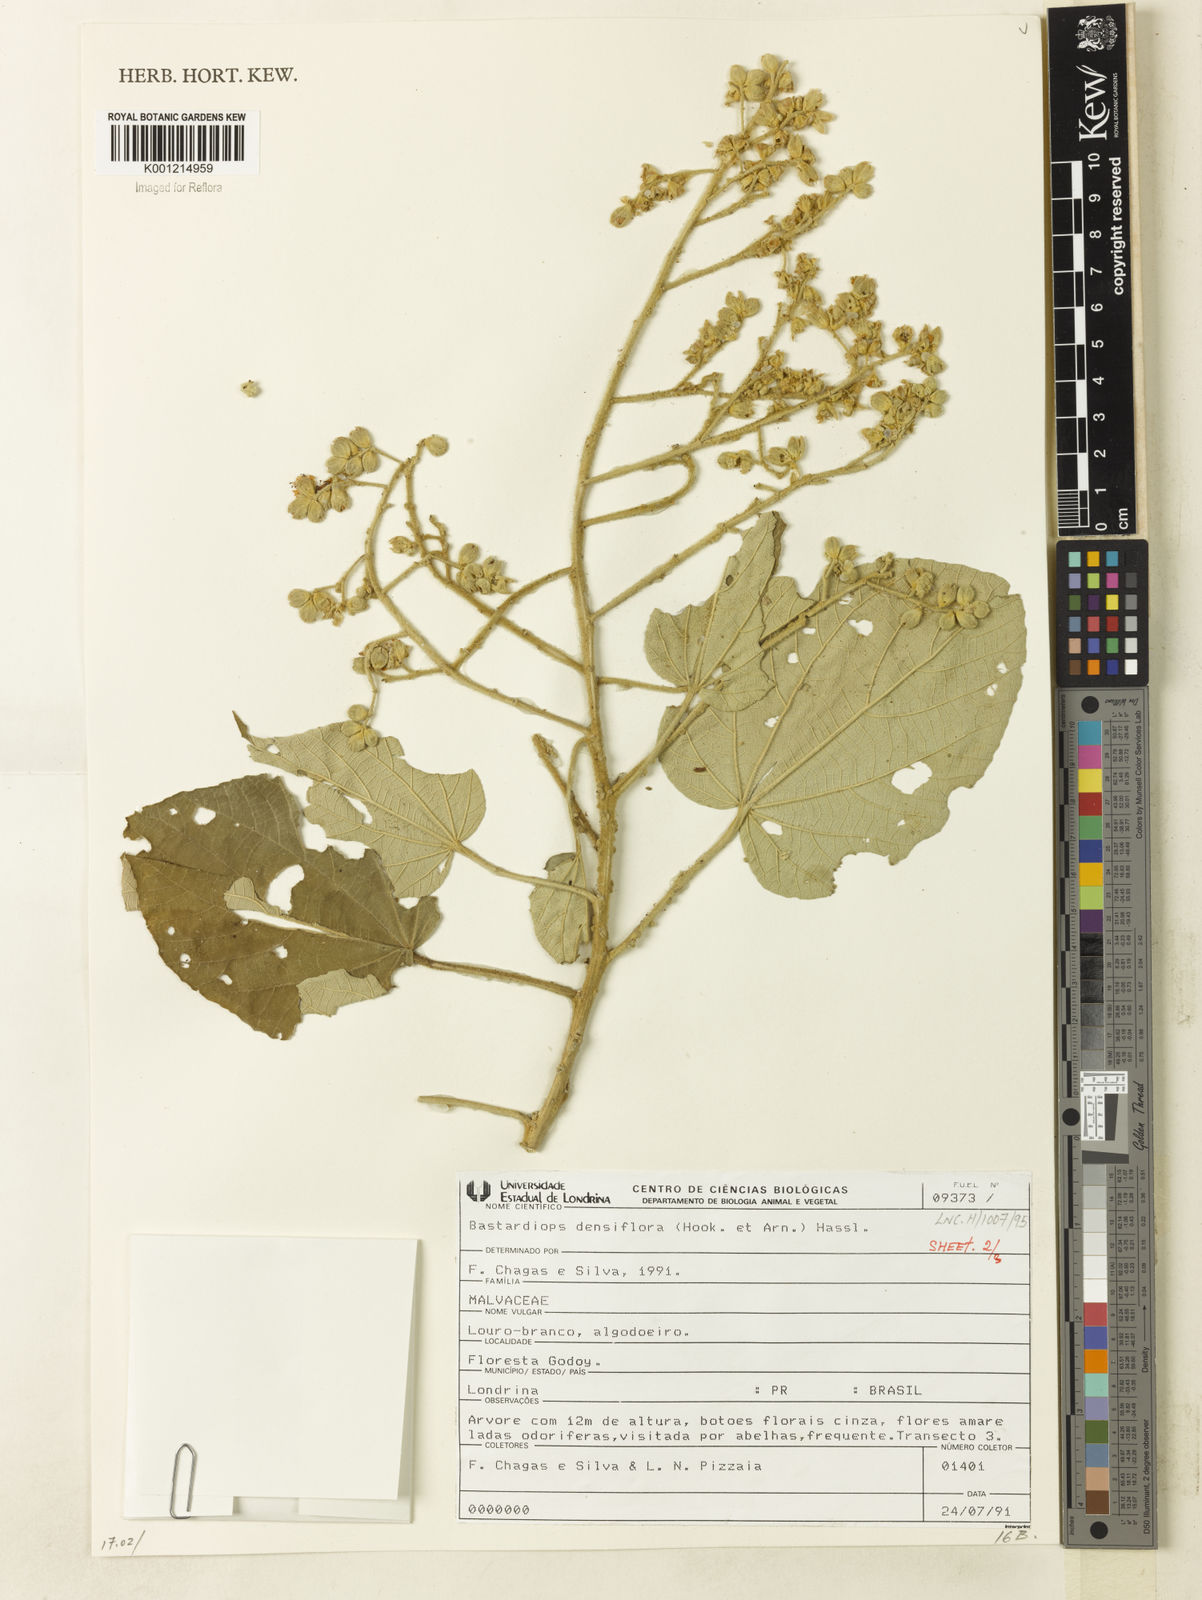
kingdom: Plantae
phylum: Tracheophyta
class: Magnoliopsida
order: Malvales
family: Malvaceae
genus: Bastardiopsis
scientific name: Bastardiopsis densiflora
